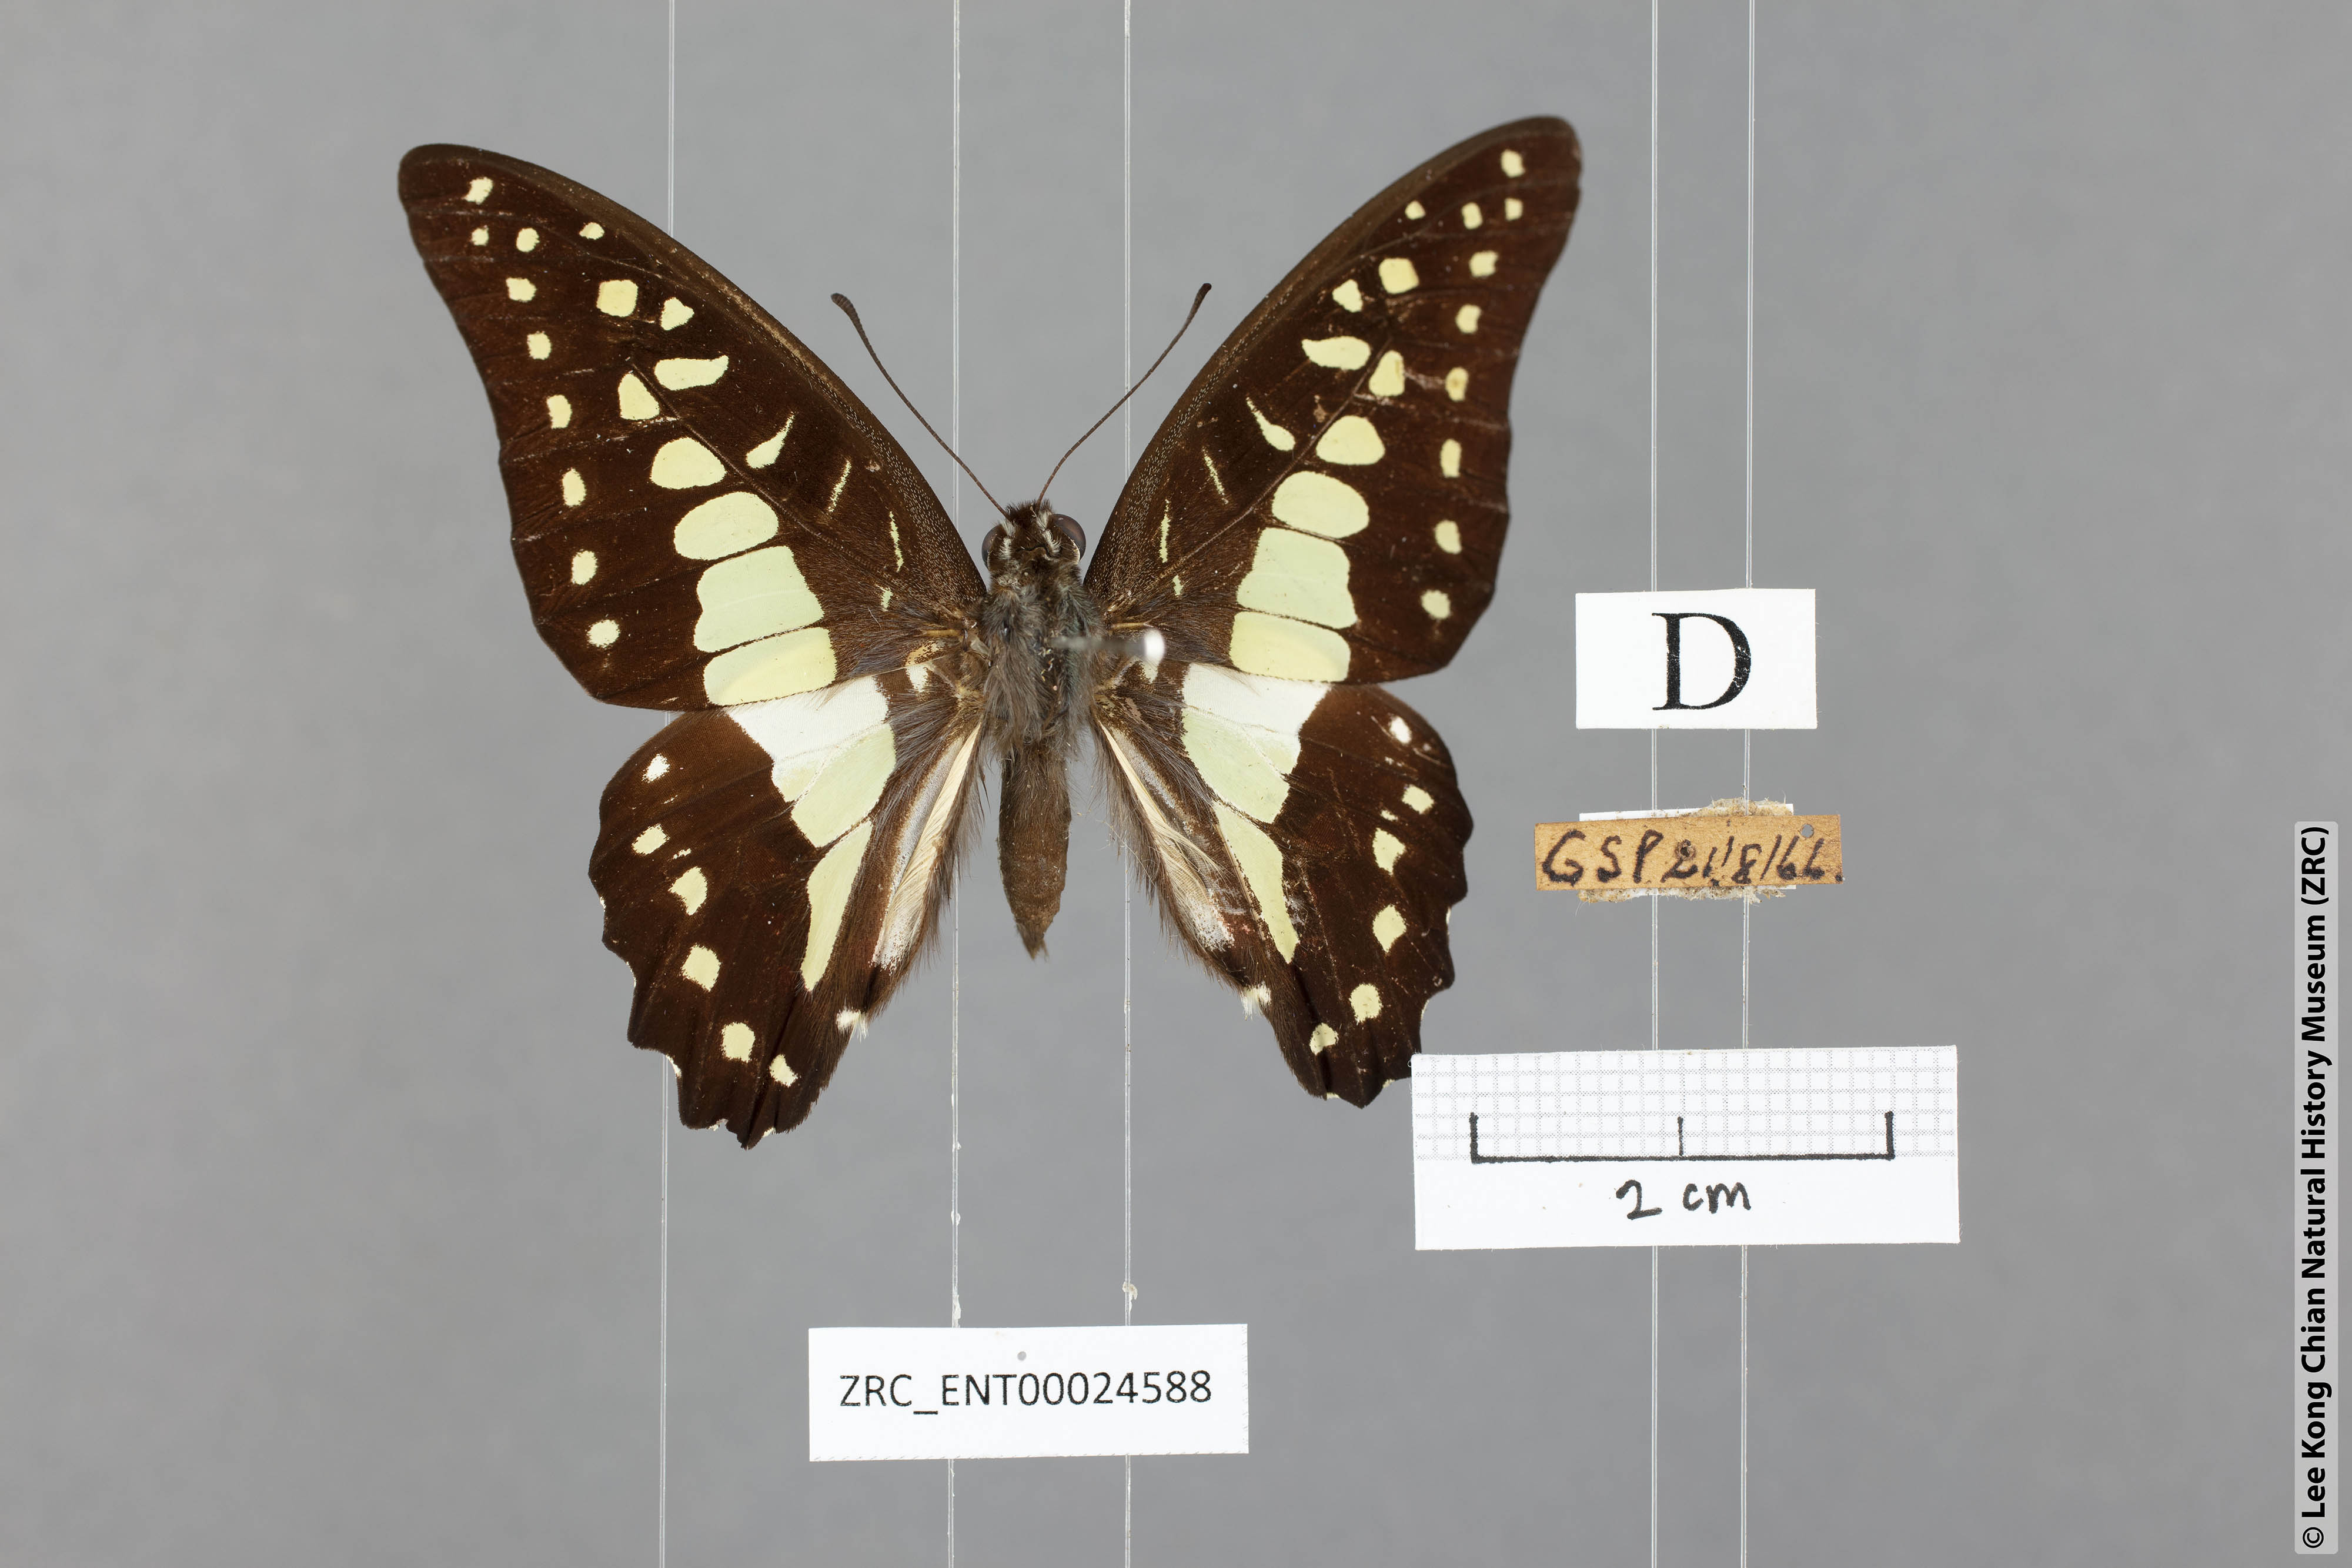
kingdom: Animalia
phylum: Arthropoda
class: Insecta
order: Lepidoptera
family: Papilionidae
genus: Graphium
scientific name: Graphium evemon
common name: Lesser jay
